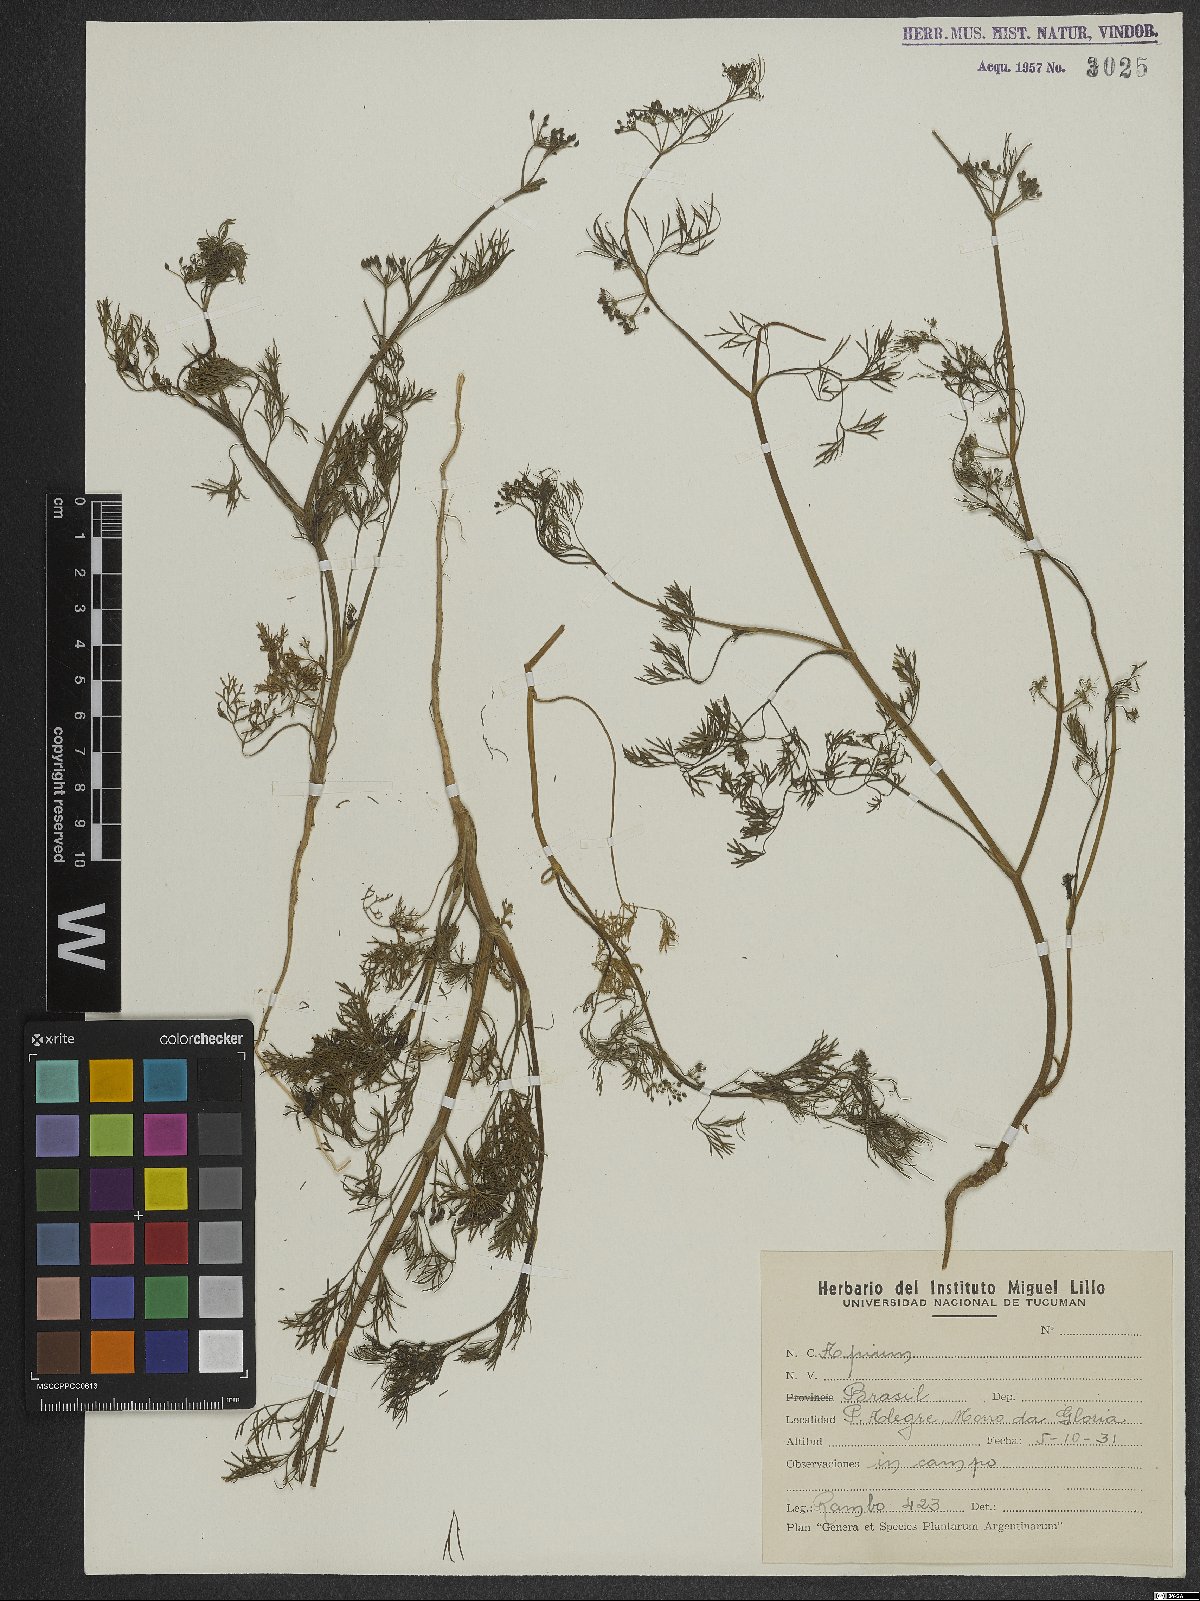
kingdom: Plantae
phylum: Tracheophyta
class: Magnoliopsida
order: Apiales
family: Apiaceae
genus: Cyclospermum
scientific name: Cyclospermum leptophyllum
